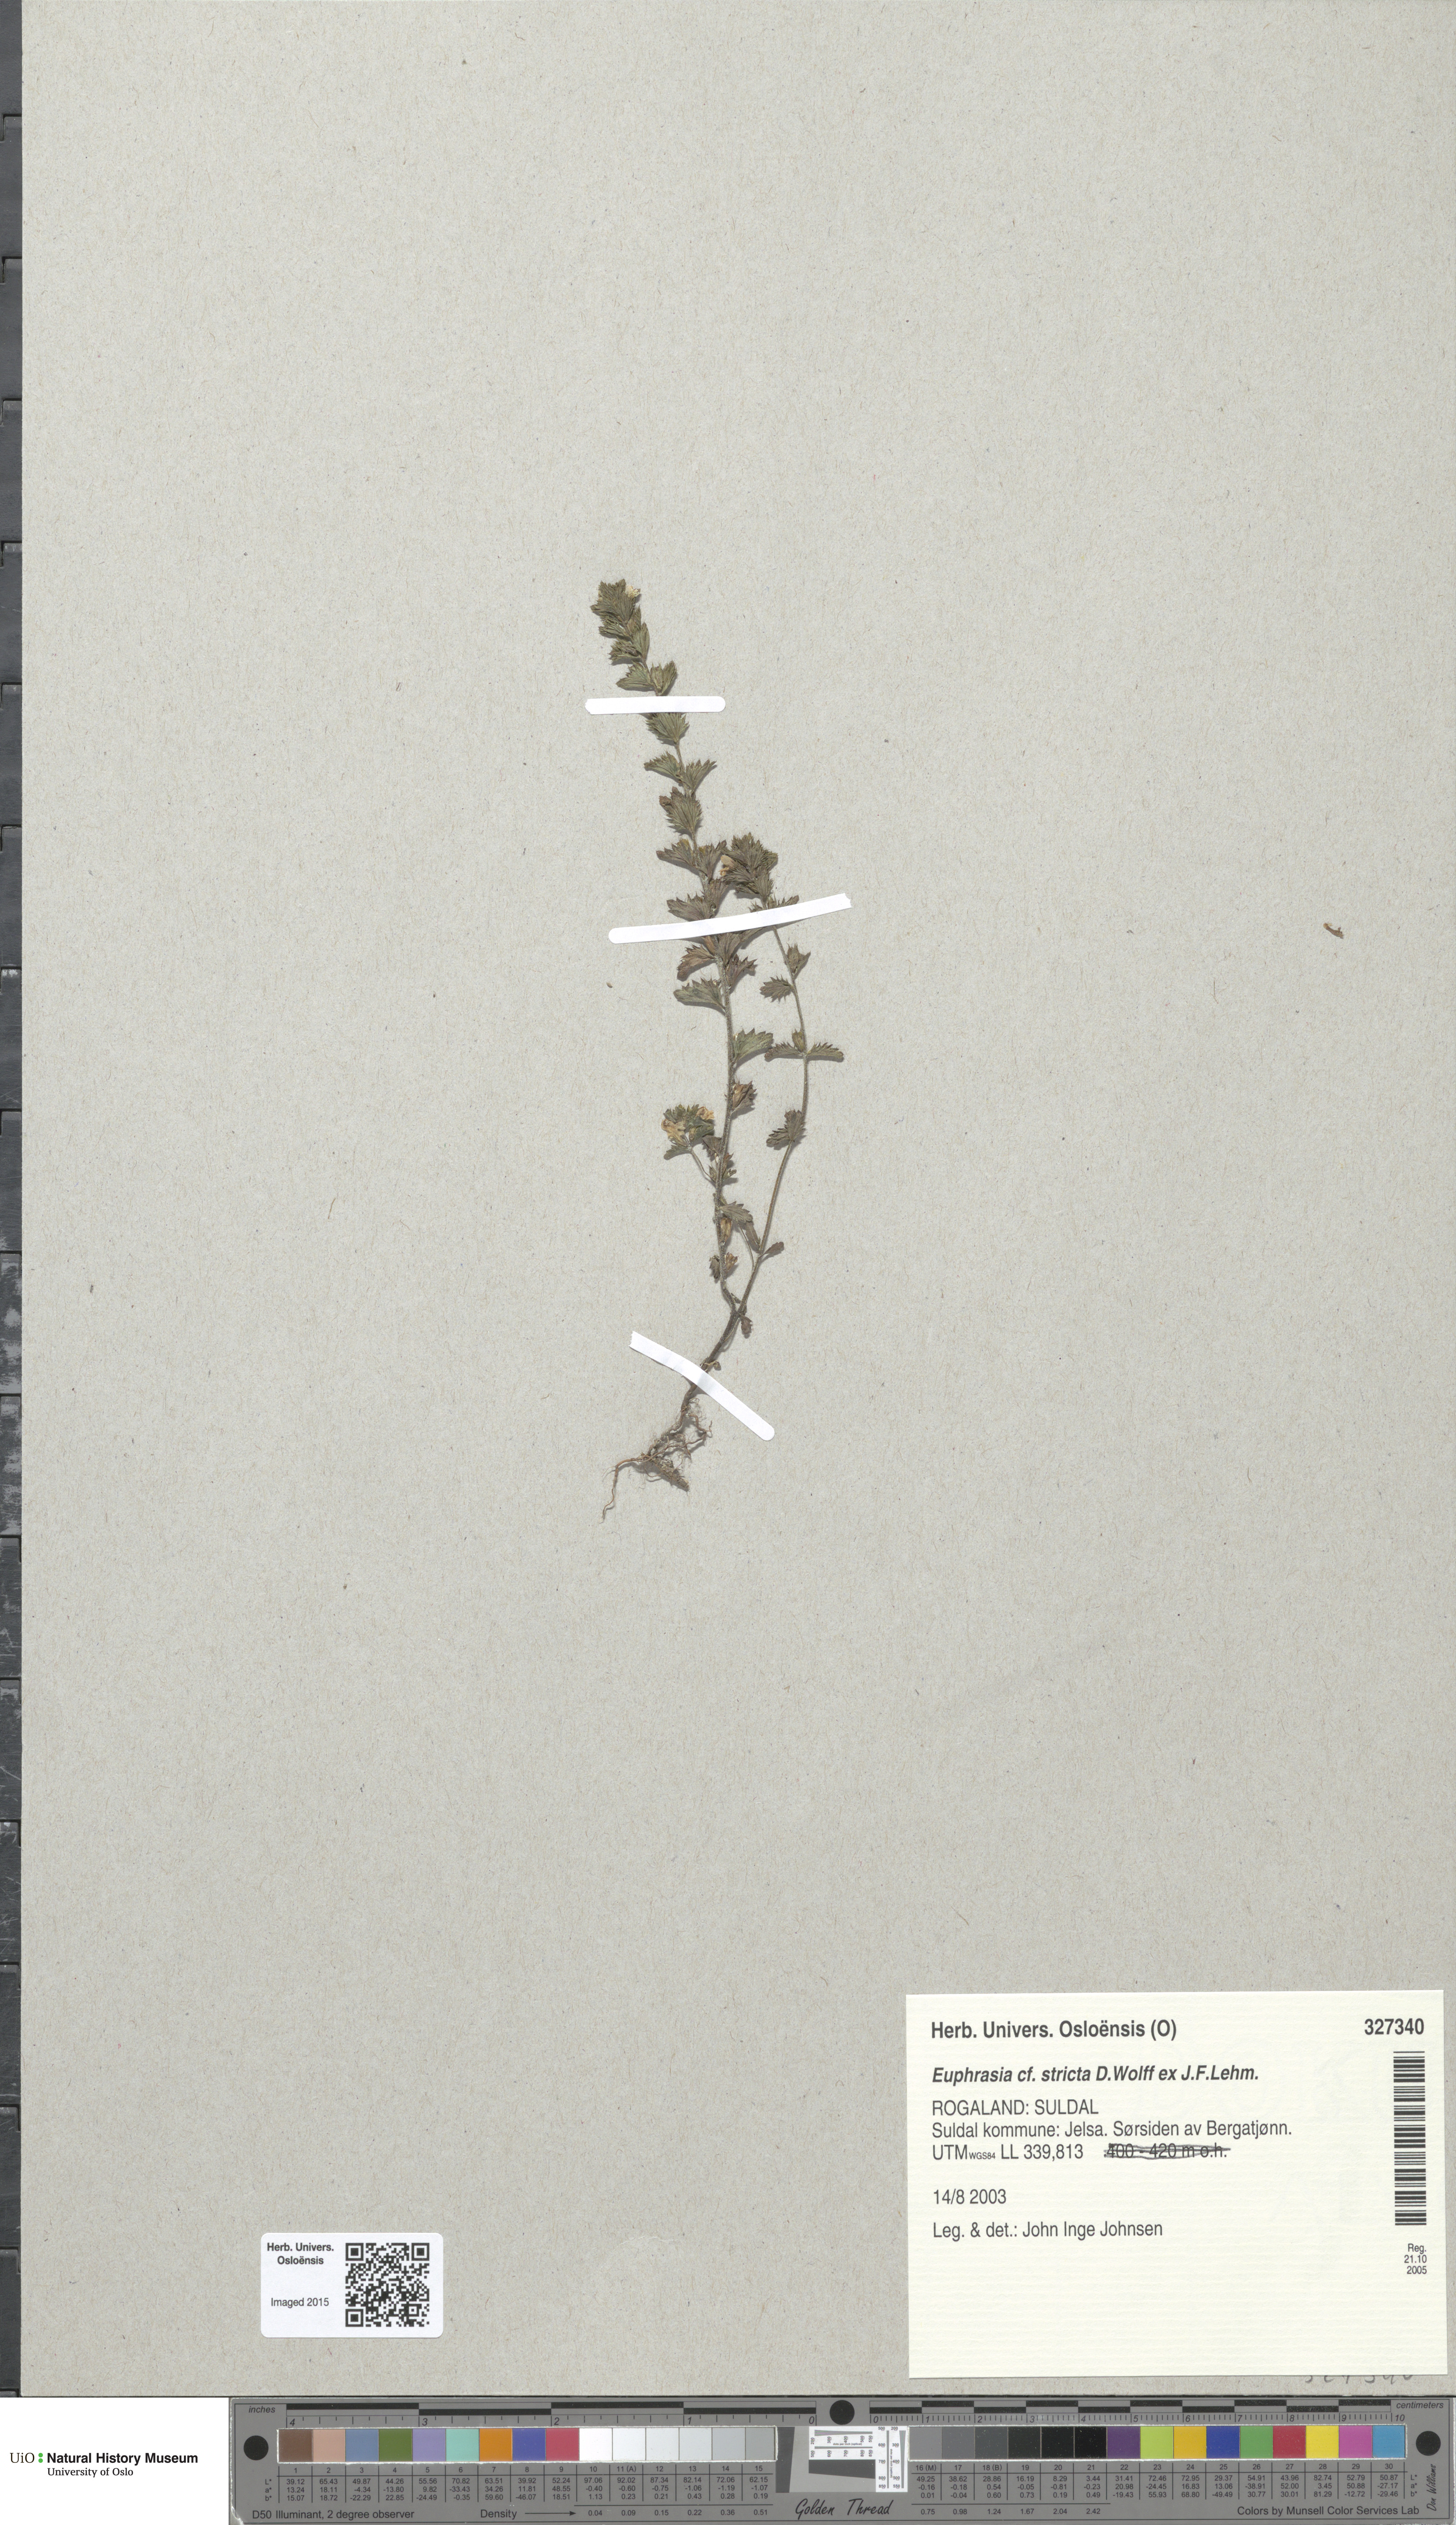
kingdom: Plantae
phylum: Tracheophyta
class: Magnoliopsida
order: Lamiales
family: Orobanchaceae
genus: Euphrasia
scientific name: Euphrasia stricta
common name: Drug eyebright
